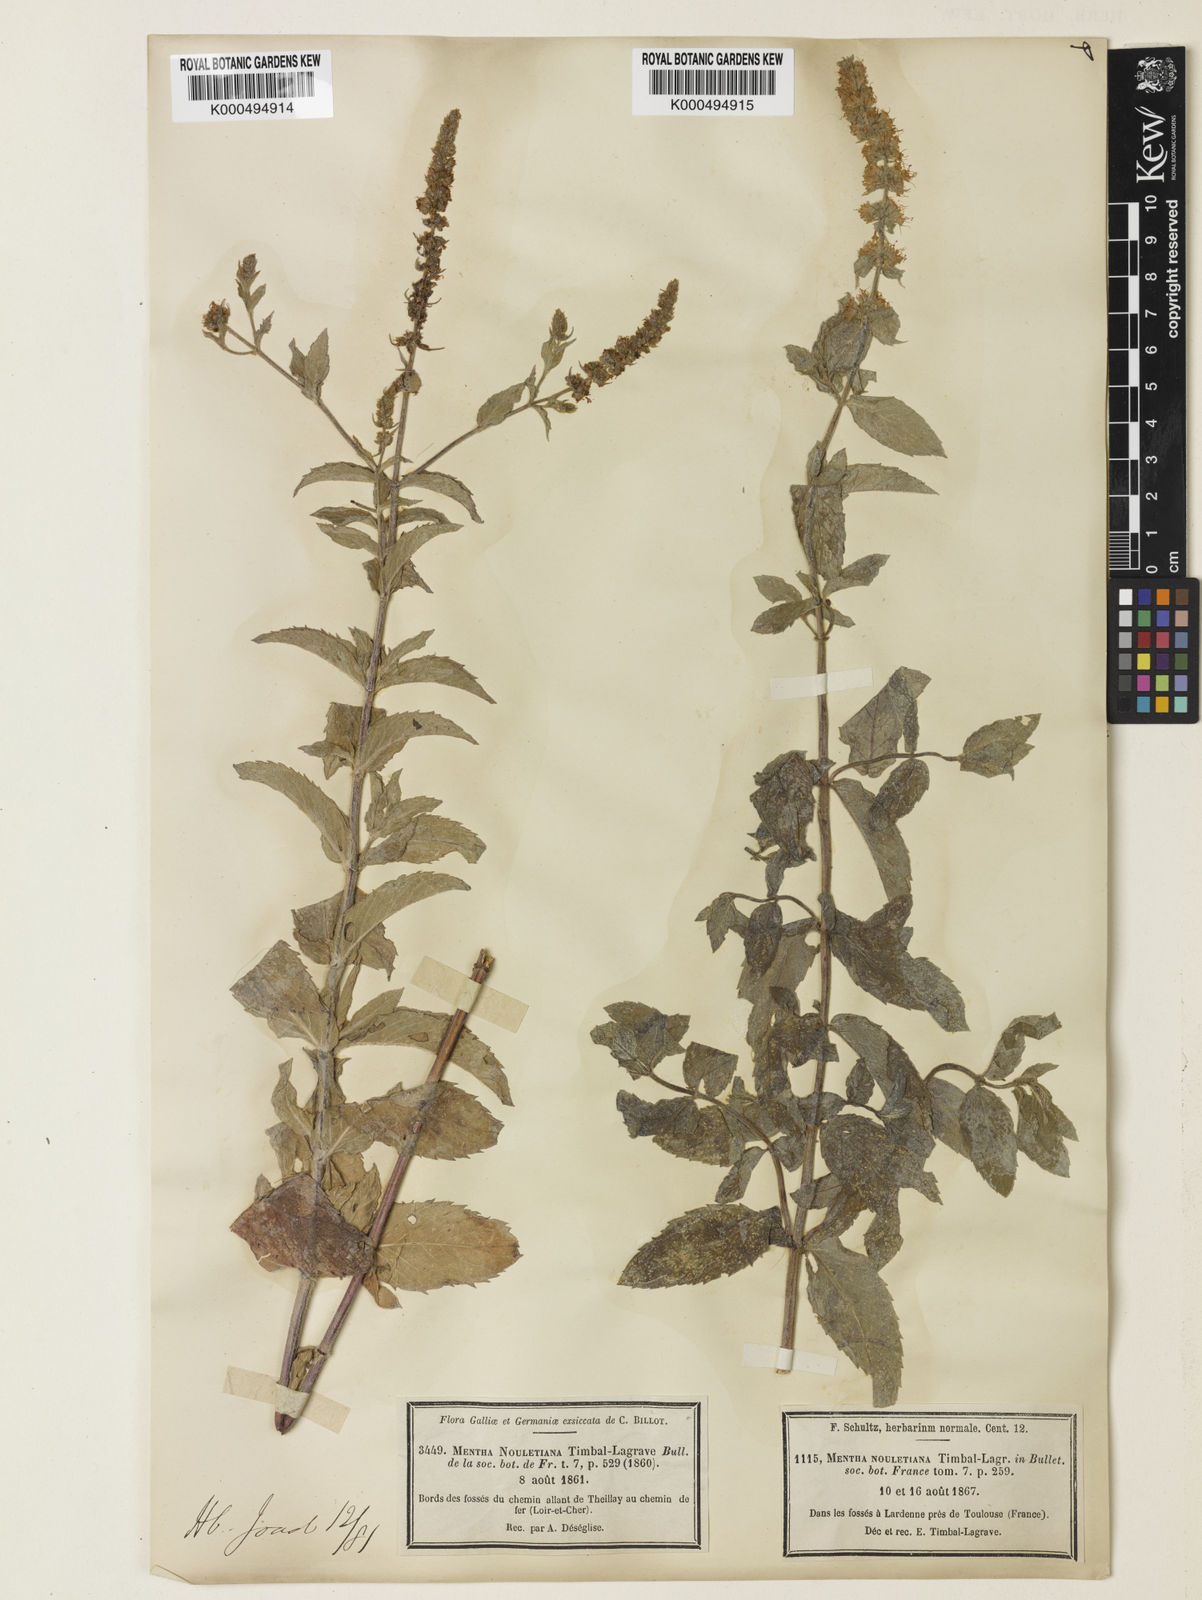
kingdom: Plantae
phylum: Tracheophyta
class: Magnoliopsida
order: Lamiales
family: Lamiaceae
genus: Mentha
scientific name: Mentha spicata
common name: Spearmint
